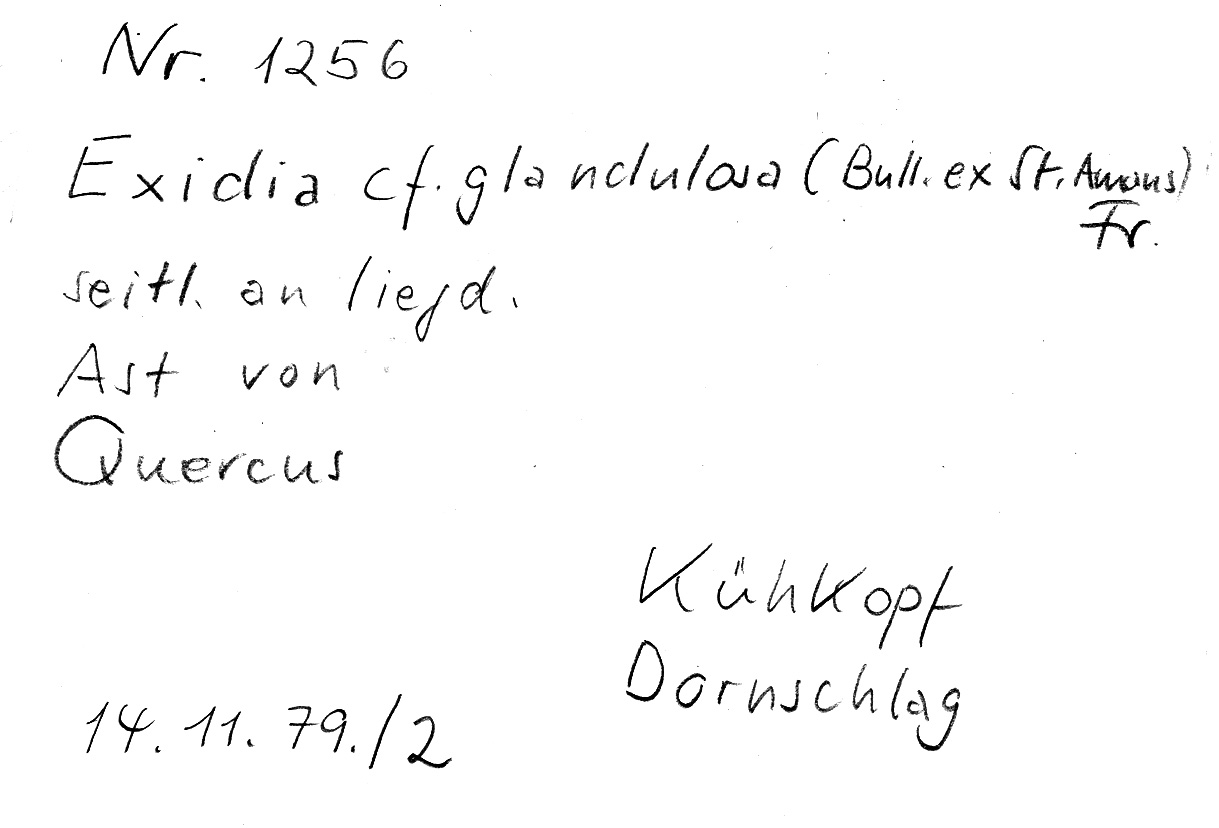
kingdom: Fungi
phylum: Basidiomycota
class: Agaricomycetes
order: Auriculariales
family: Auriculariaceae
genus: Exidia
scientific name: Exidia glandulosa
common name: Witches' butter
